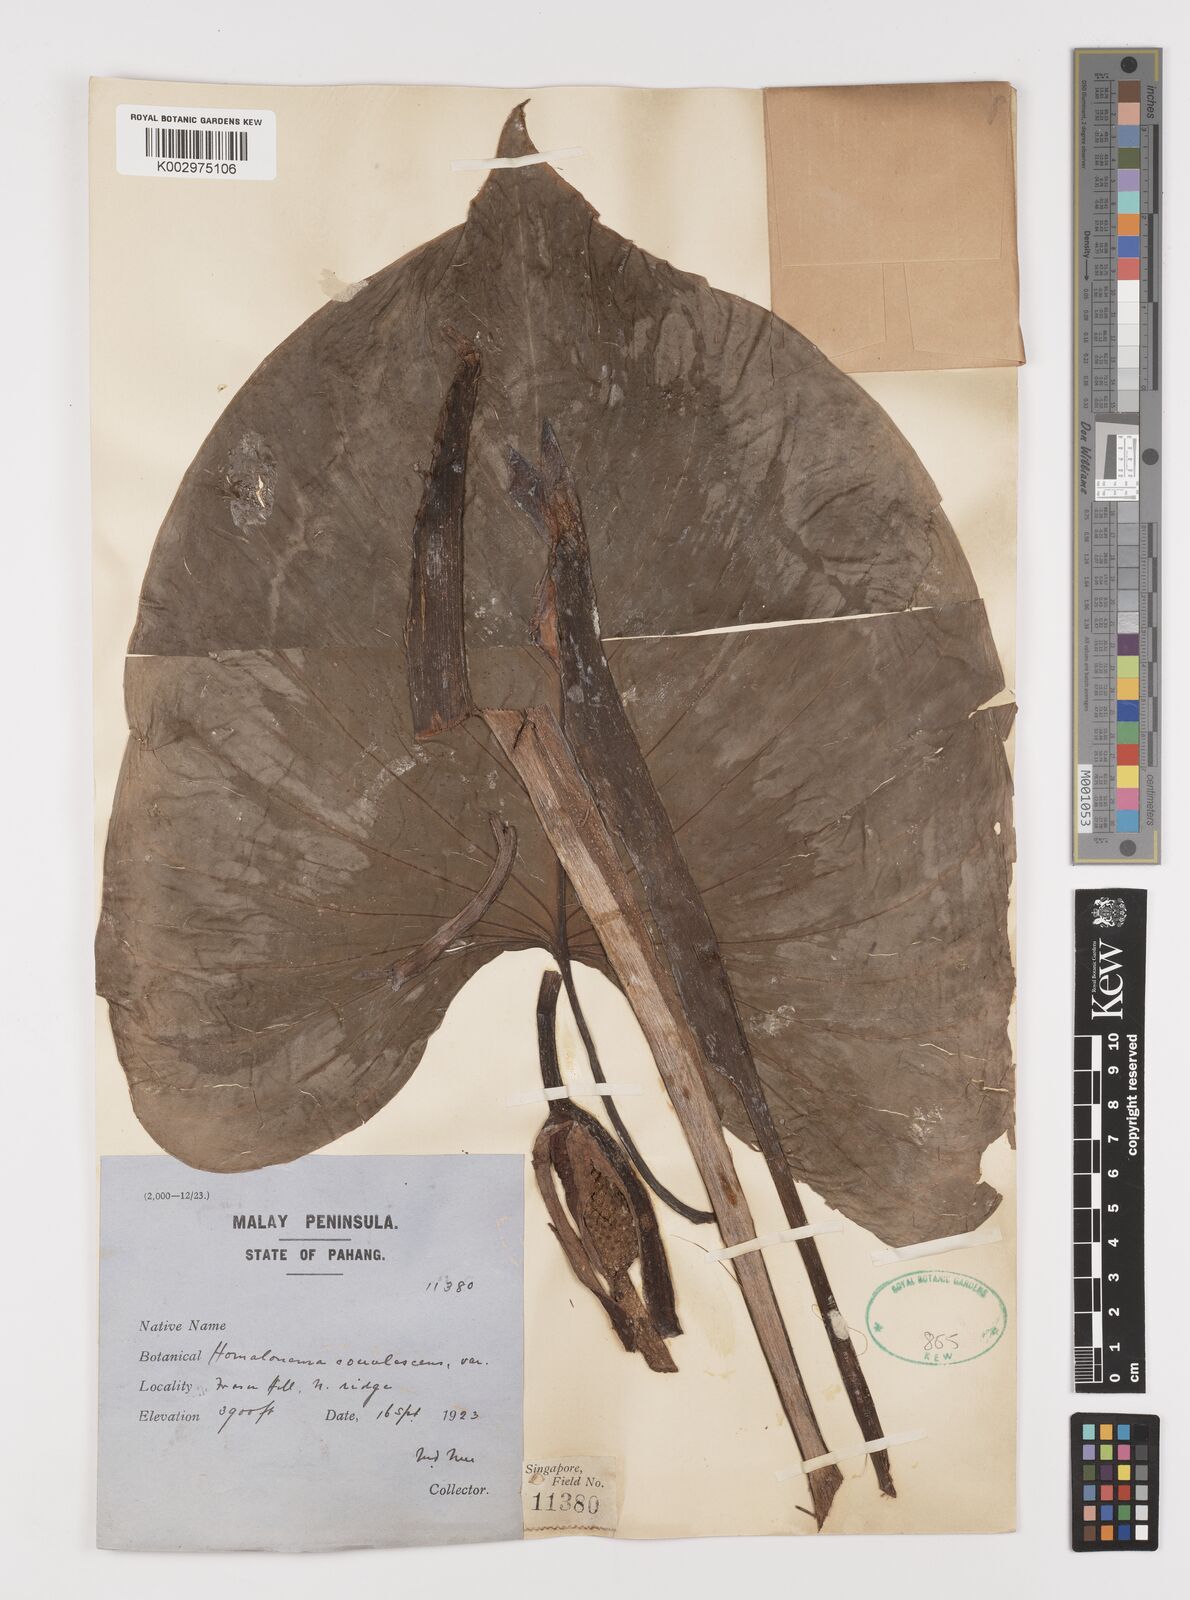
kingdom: Plantae
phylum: Tracheophyta
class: Liliopsida
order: Alismatales
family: Araceae
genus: Homalomena
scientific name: Homalomena pendula
